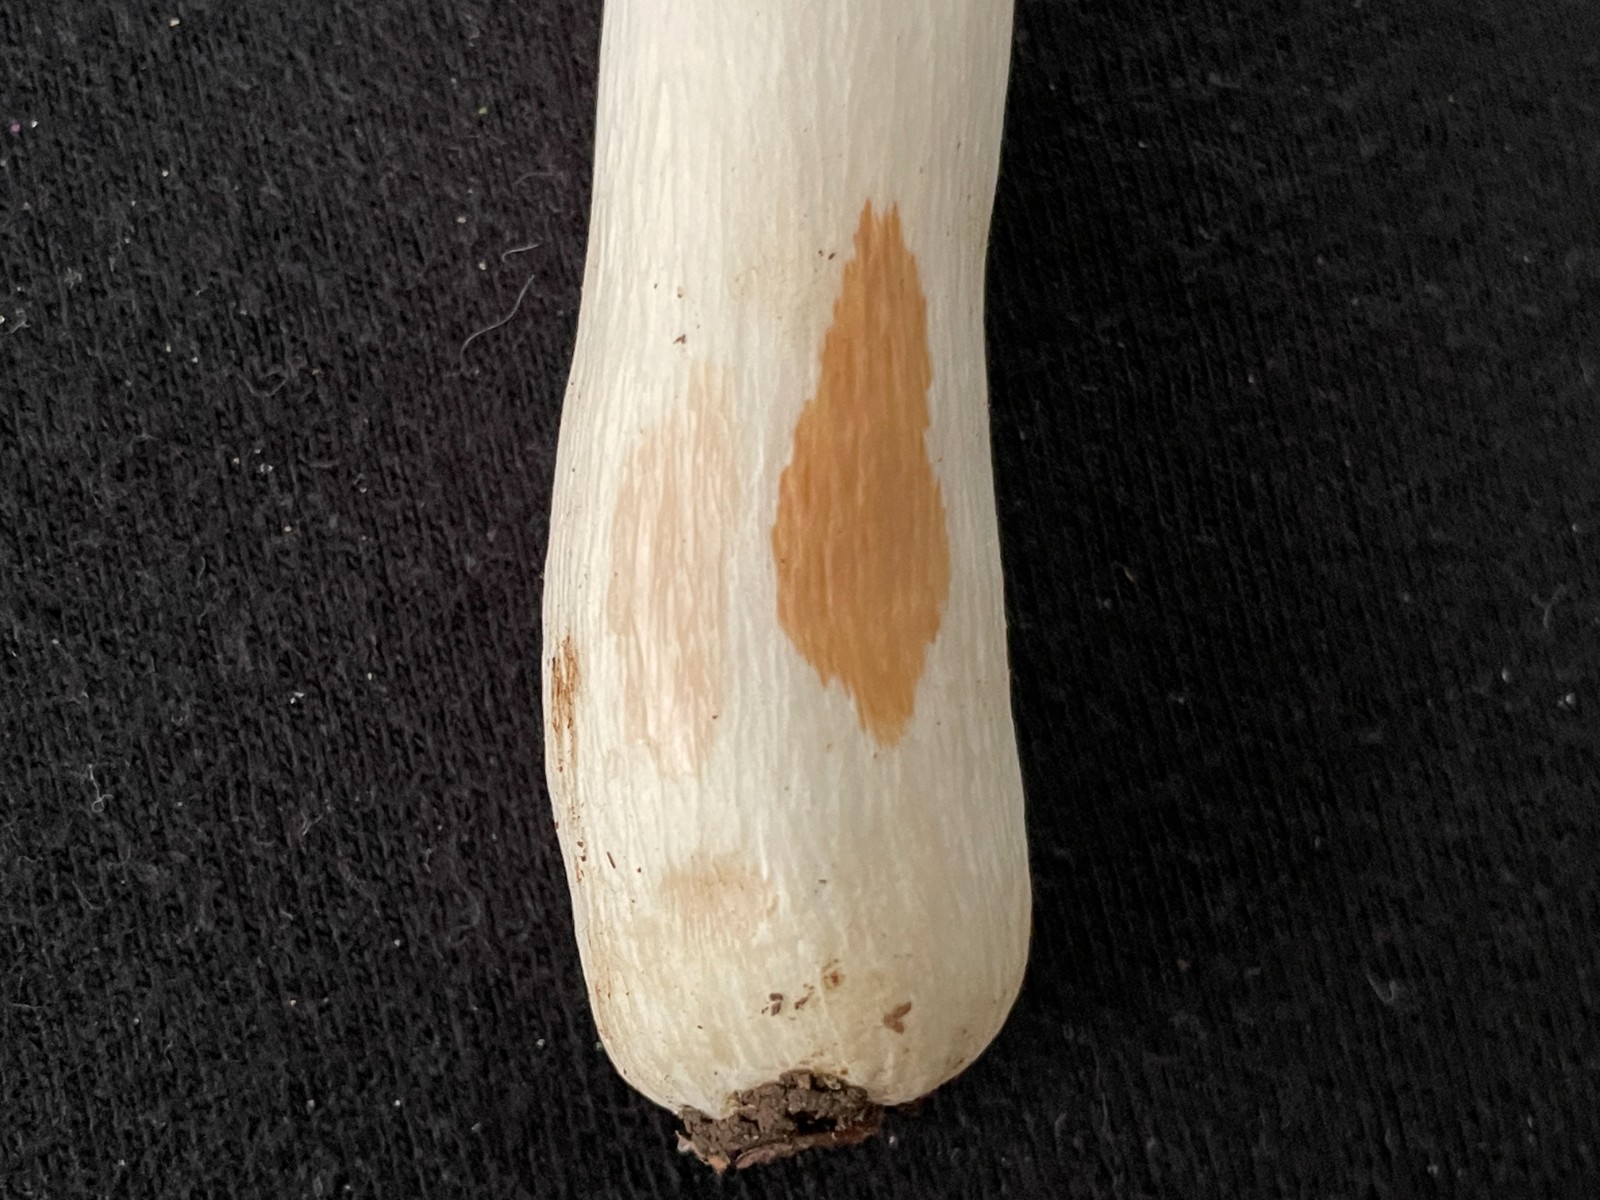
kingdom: Fungi
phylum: Basidiomycota
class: Agaricomycetes
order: Russulales
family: Russulaceae
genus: Russula
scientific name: Russula
